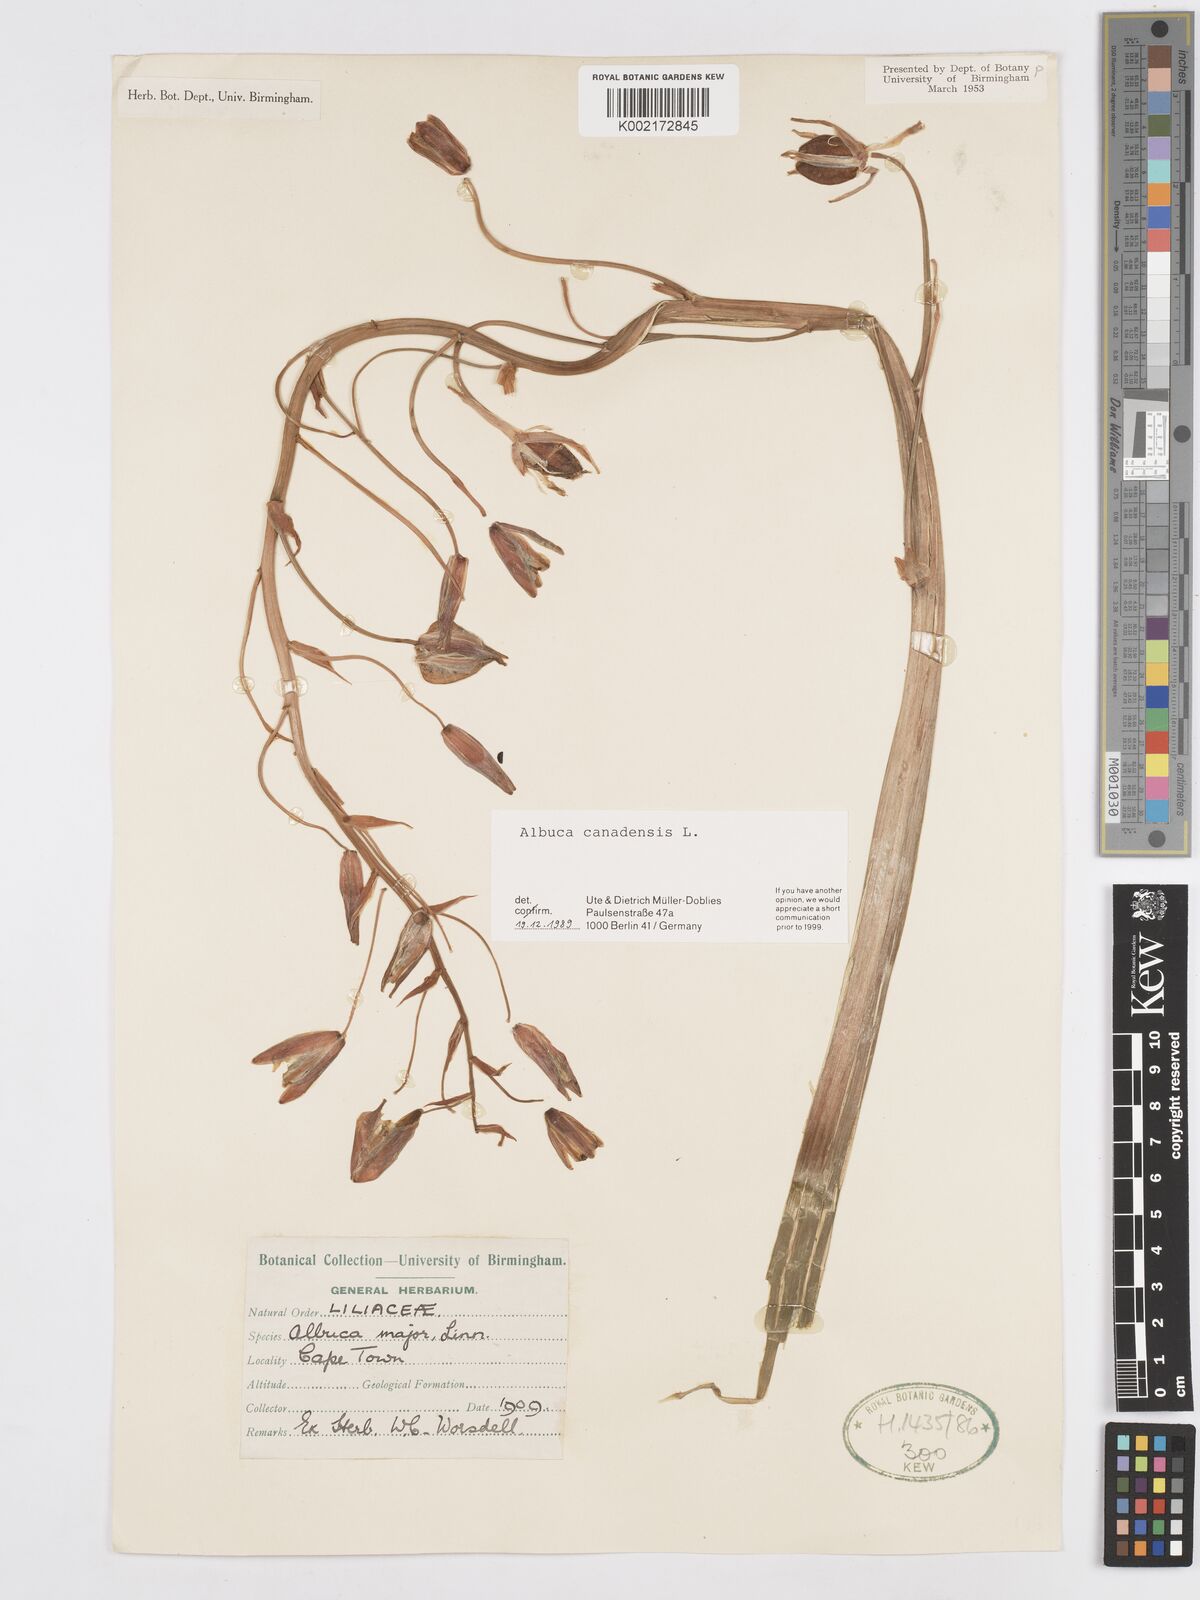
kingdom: Plantae
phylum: Tracheophyta
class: Liliopsida
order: Asparagales
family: Asparagaceae
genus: Albuca
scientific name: Albuca canadensis
